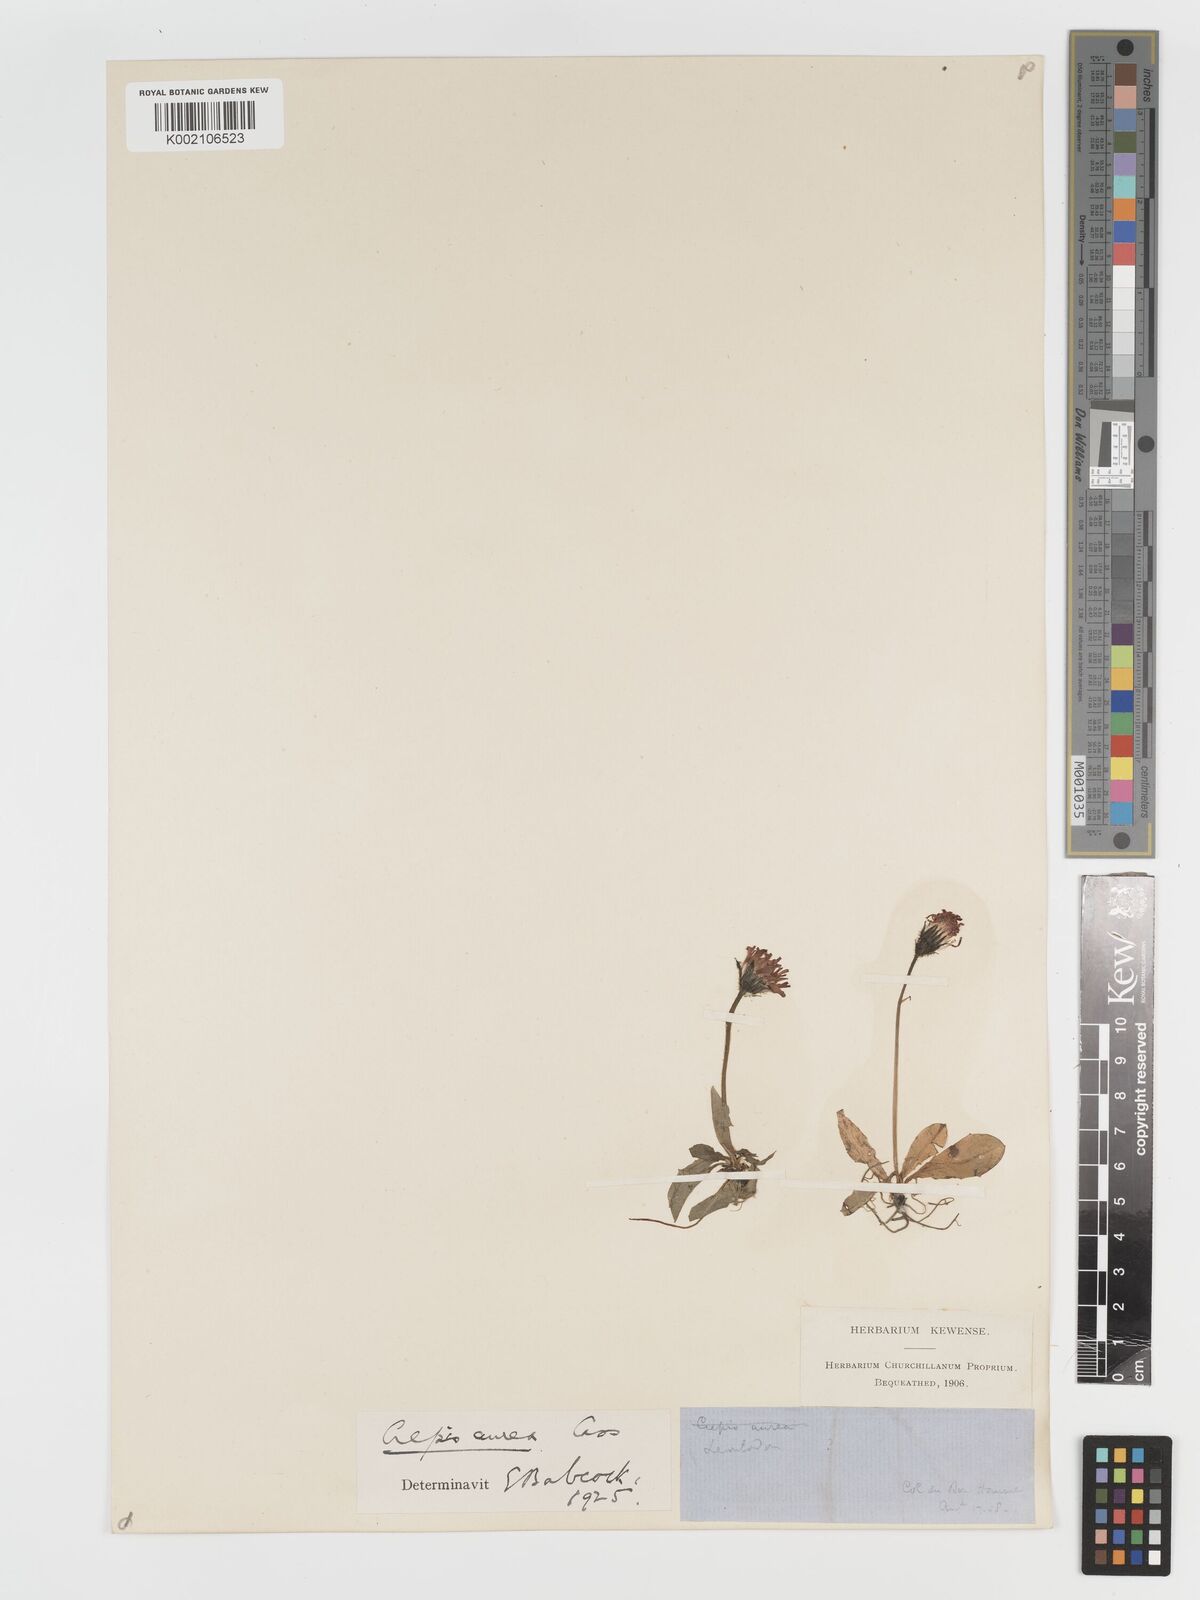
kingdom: Plantae
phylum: Tracheophyta
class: Magnoliopsida
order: Asterales
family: Asteraceae
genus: Crepis
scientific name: Crepis aurea
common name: Golden hawk's-beard
